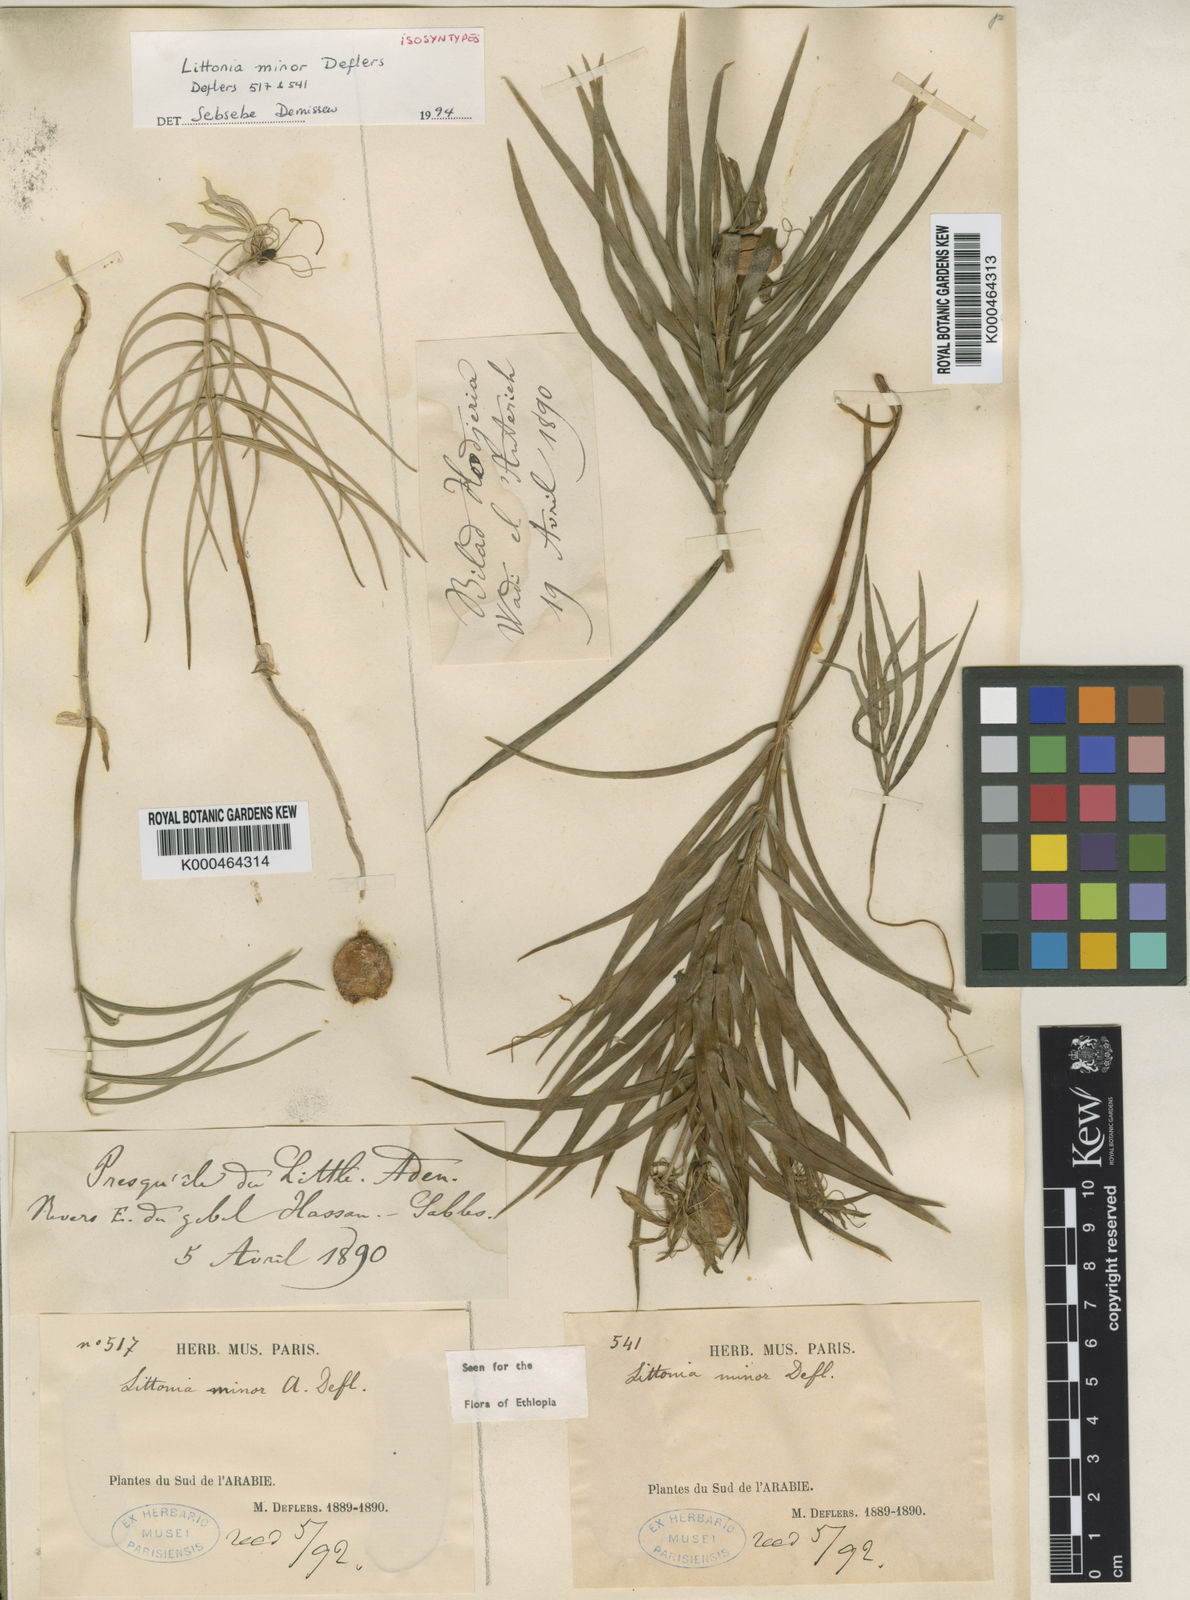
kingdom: Plantae
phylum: Tracheophyta
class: Liliopsida
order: Liliales
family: Colchicaceae
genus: Gloriosa
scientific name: Gloriosa revoilii
